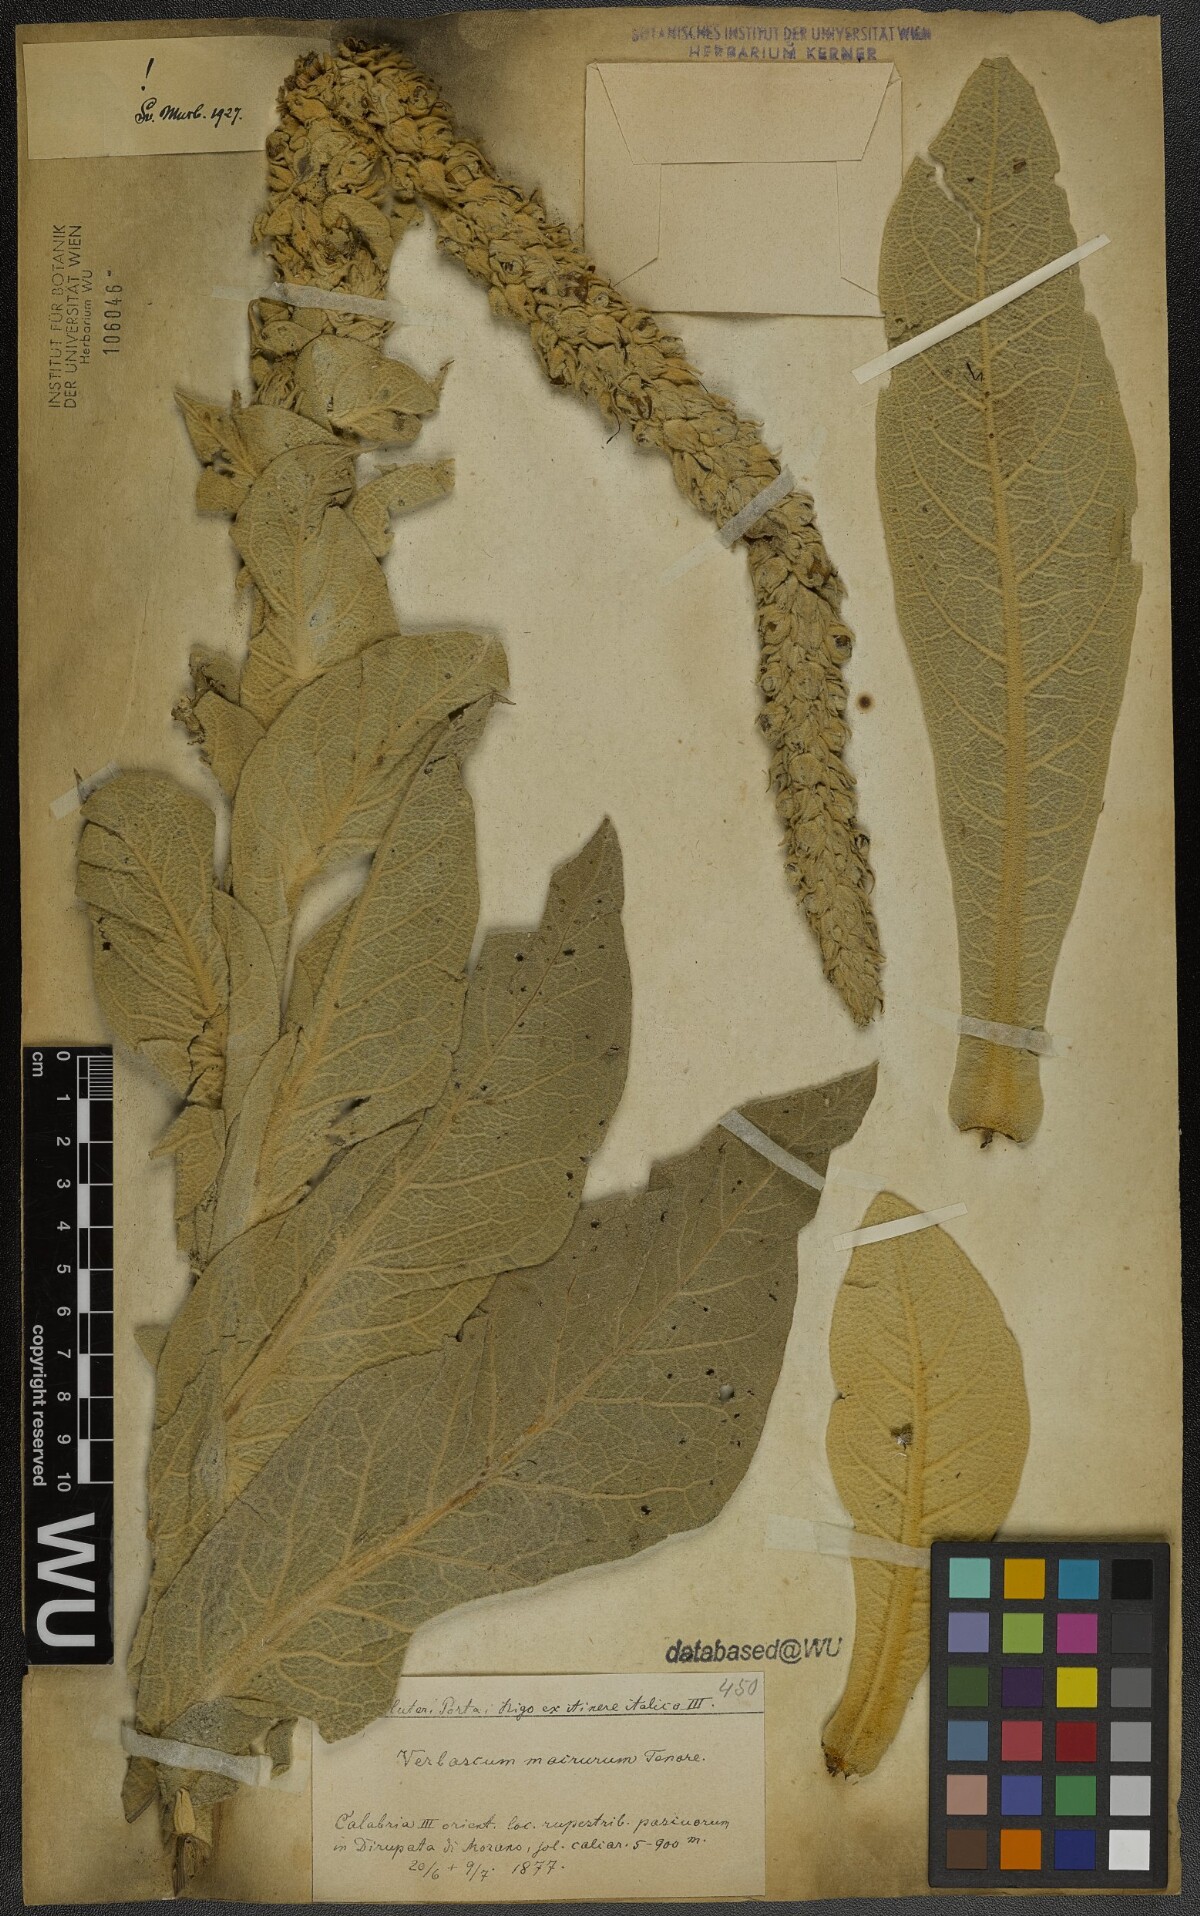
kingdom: Plantae
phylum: Tracheophyta
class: Magnoliopsida
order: Lamiales
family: Scrophulariaceae
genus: Verbascum
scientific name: Verbascum macrurum
